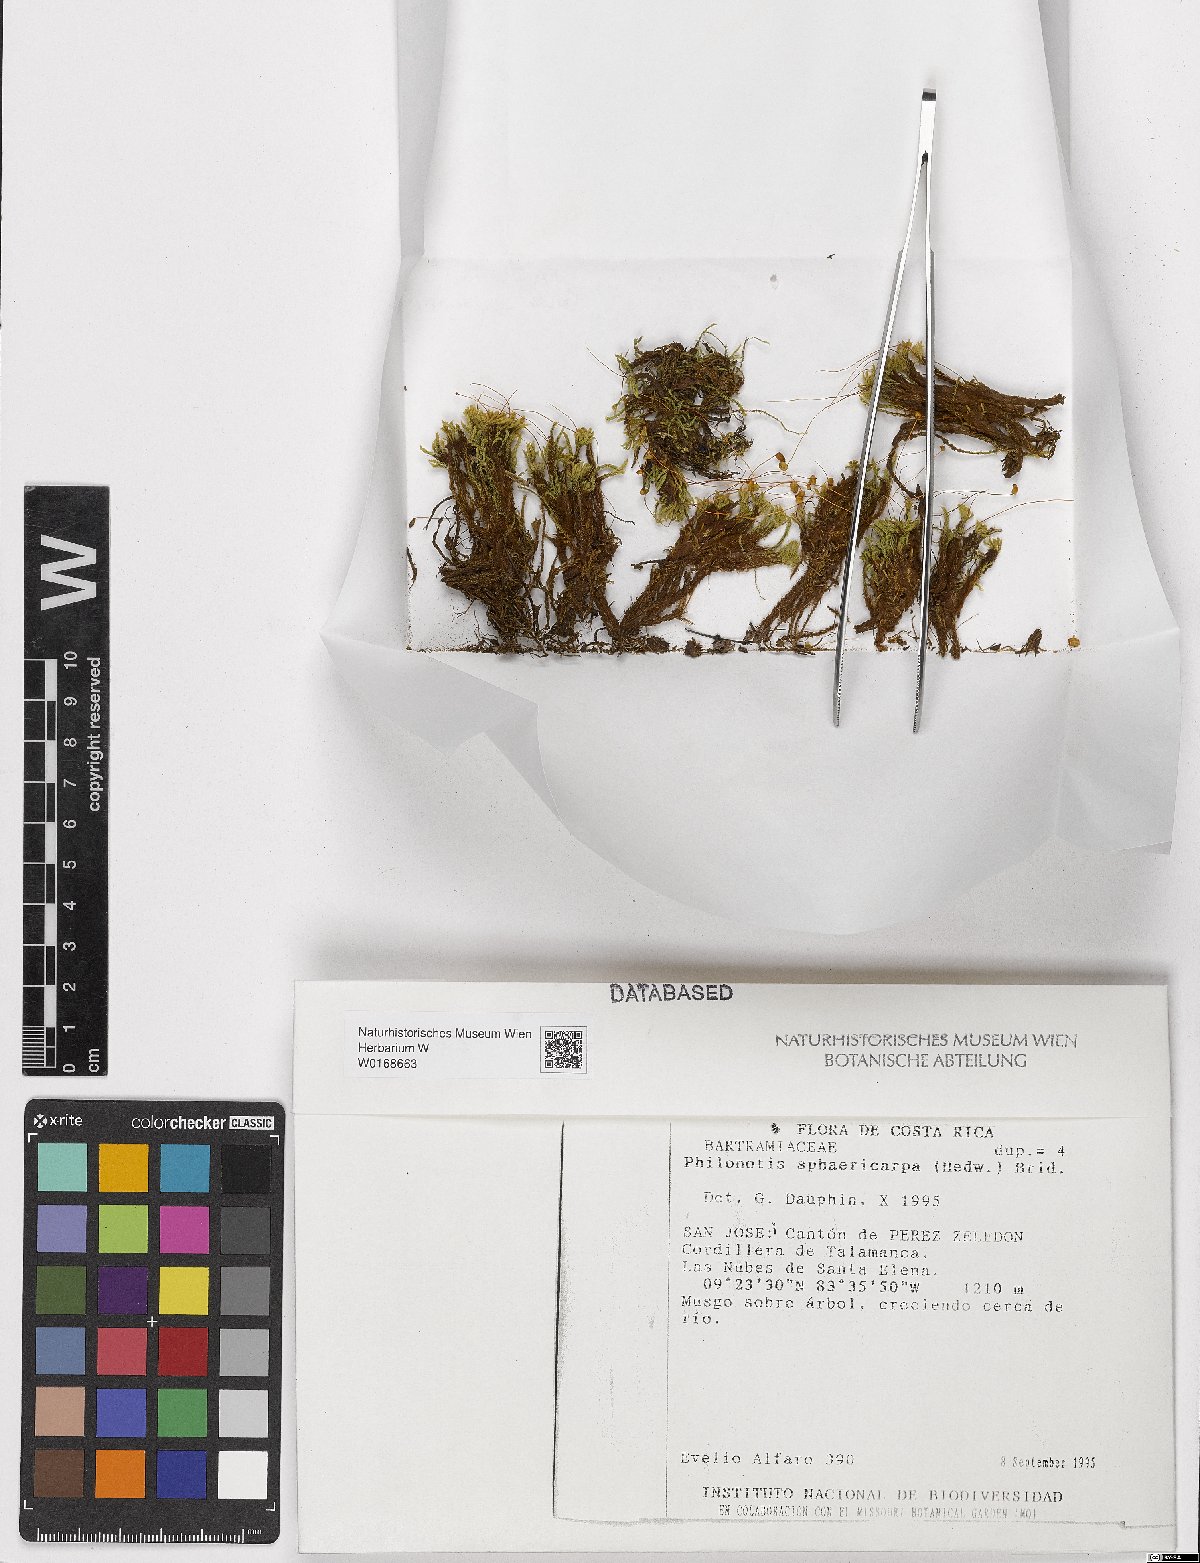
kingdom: Plantae
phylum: Bryophyta
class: Bryopsida
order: Bartramiales
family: Bartramiaceae
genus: Philonotis
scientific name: Philonotis sphaericarpa
